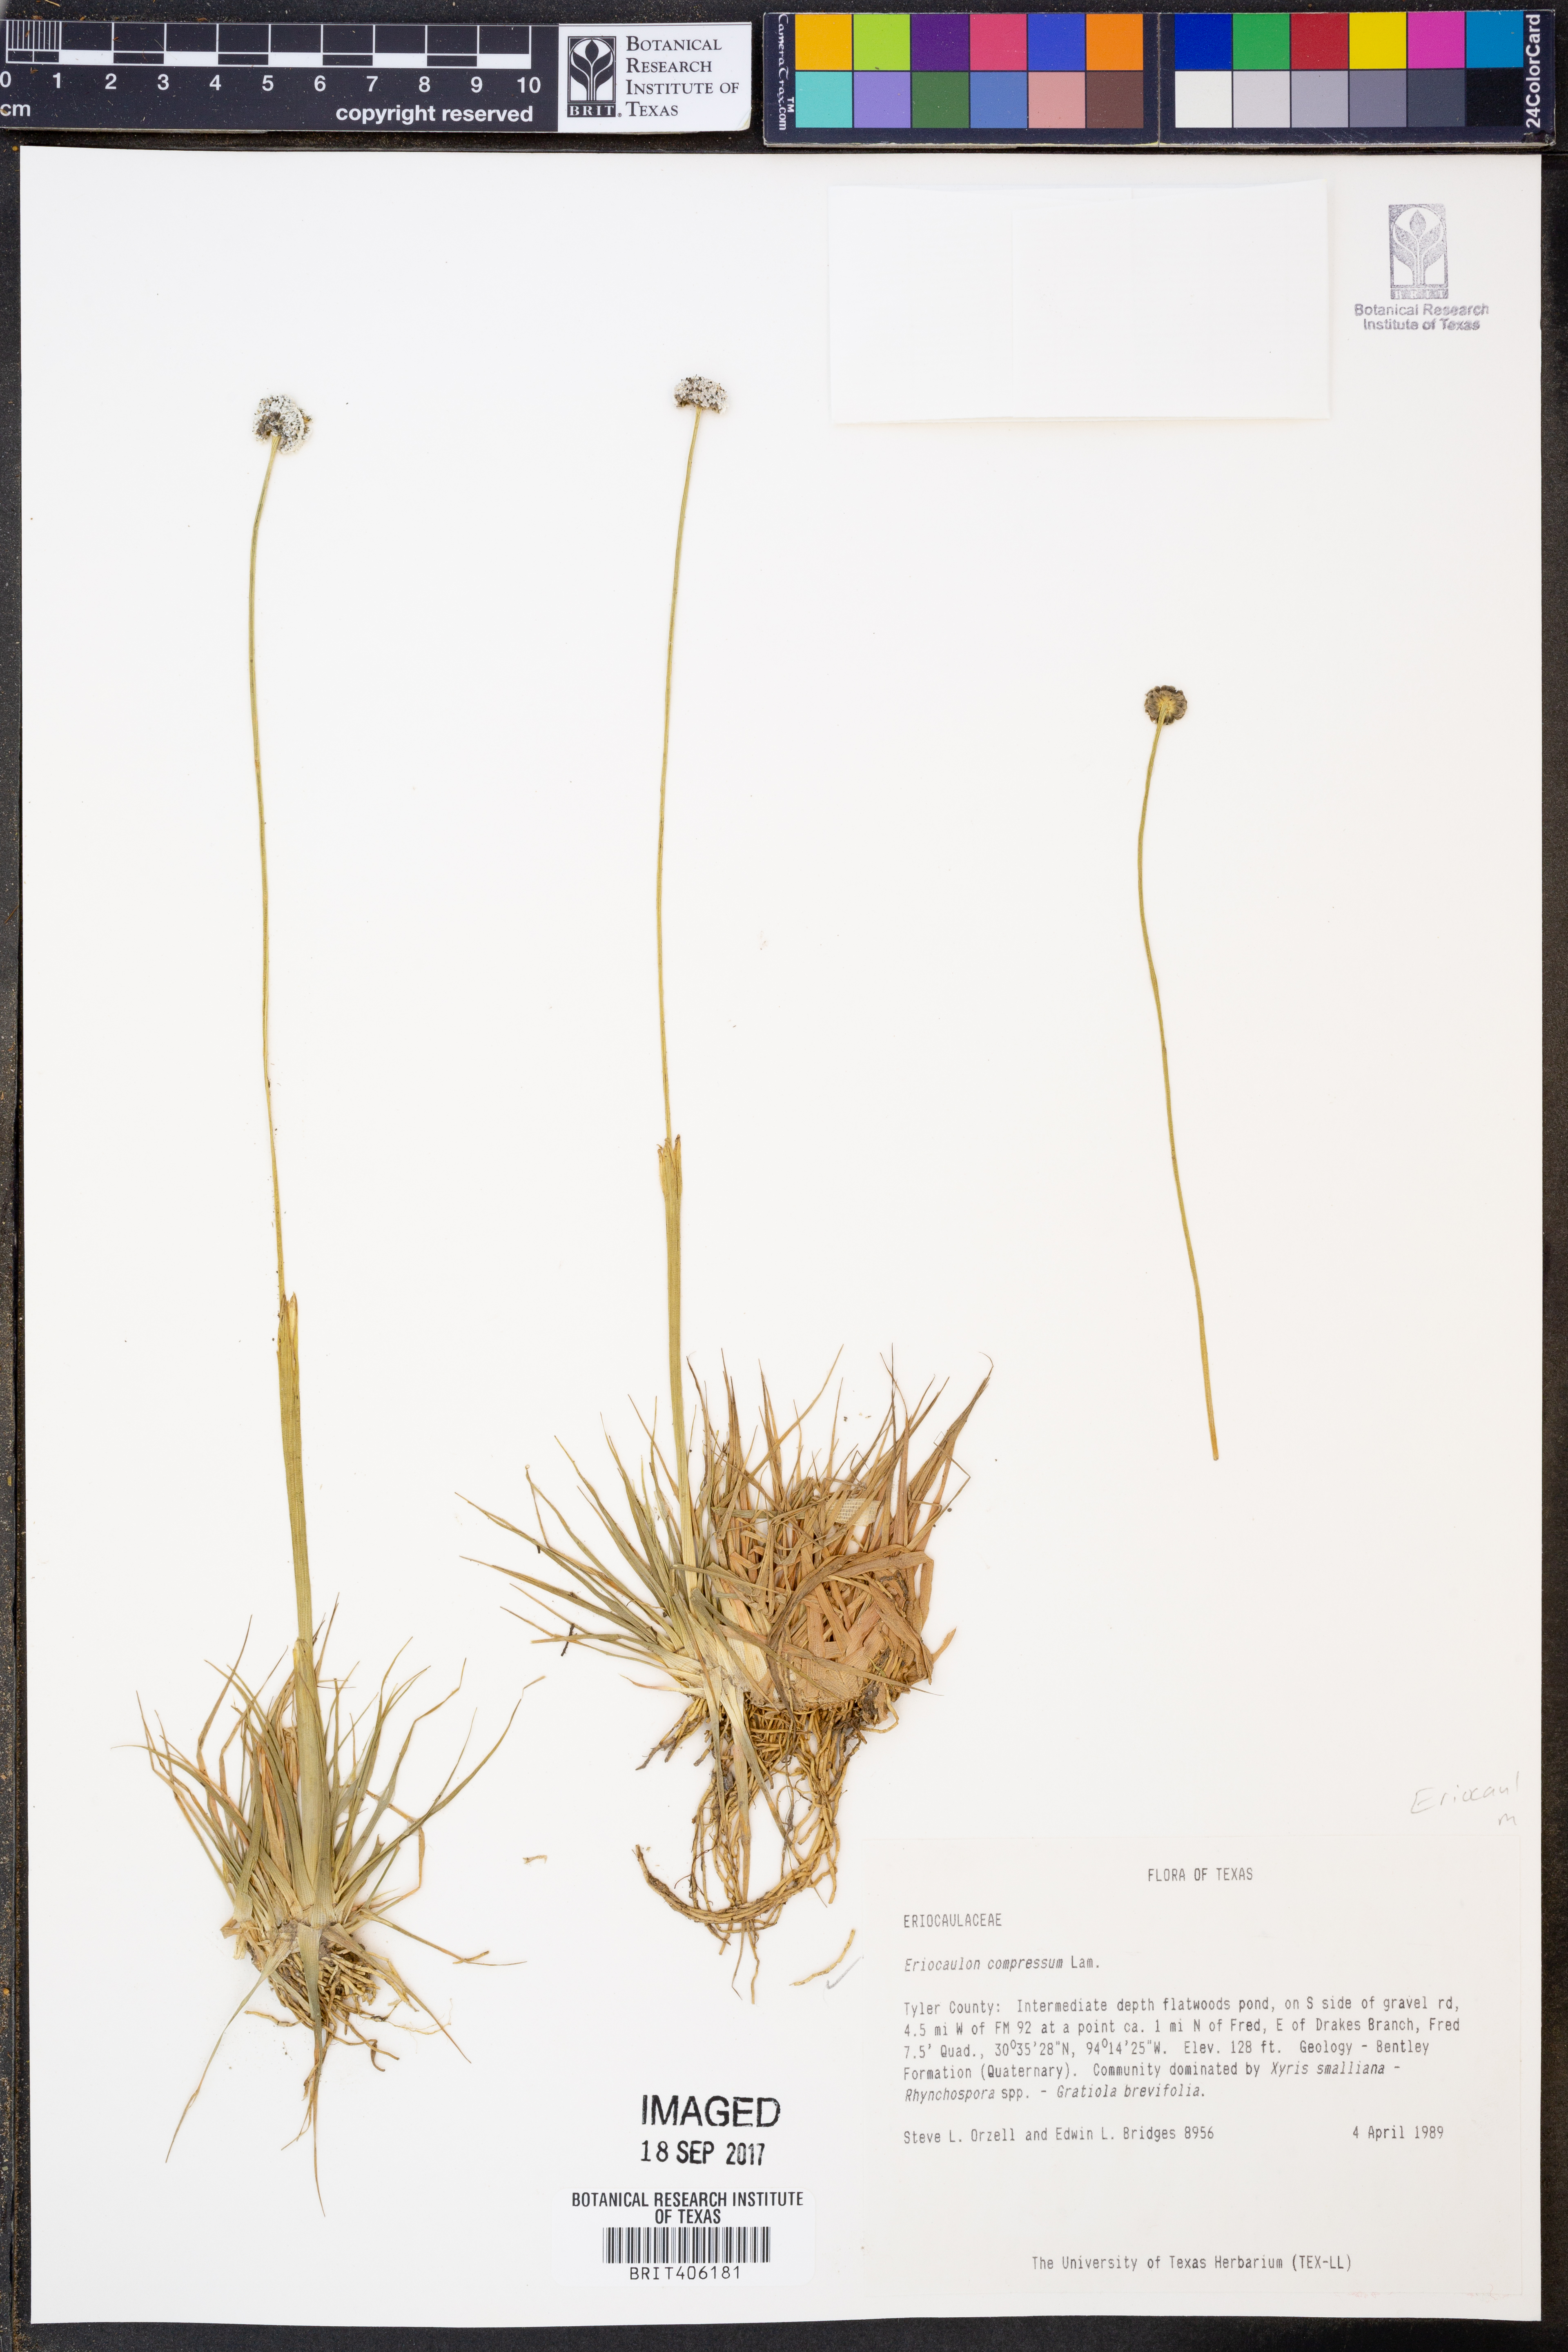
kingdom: Plantae
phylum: Tracheophyta
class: Liliopsida
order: Poales
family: Eriocaulaceae
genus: Eriocaulon
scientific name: Eriocaulon compressum
